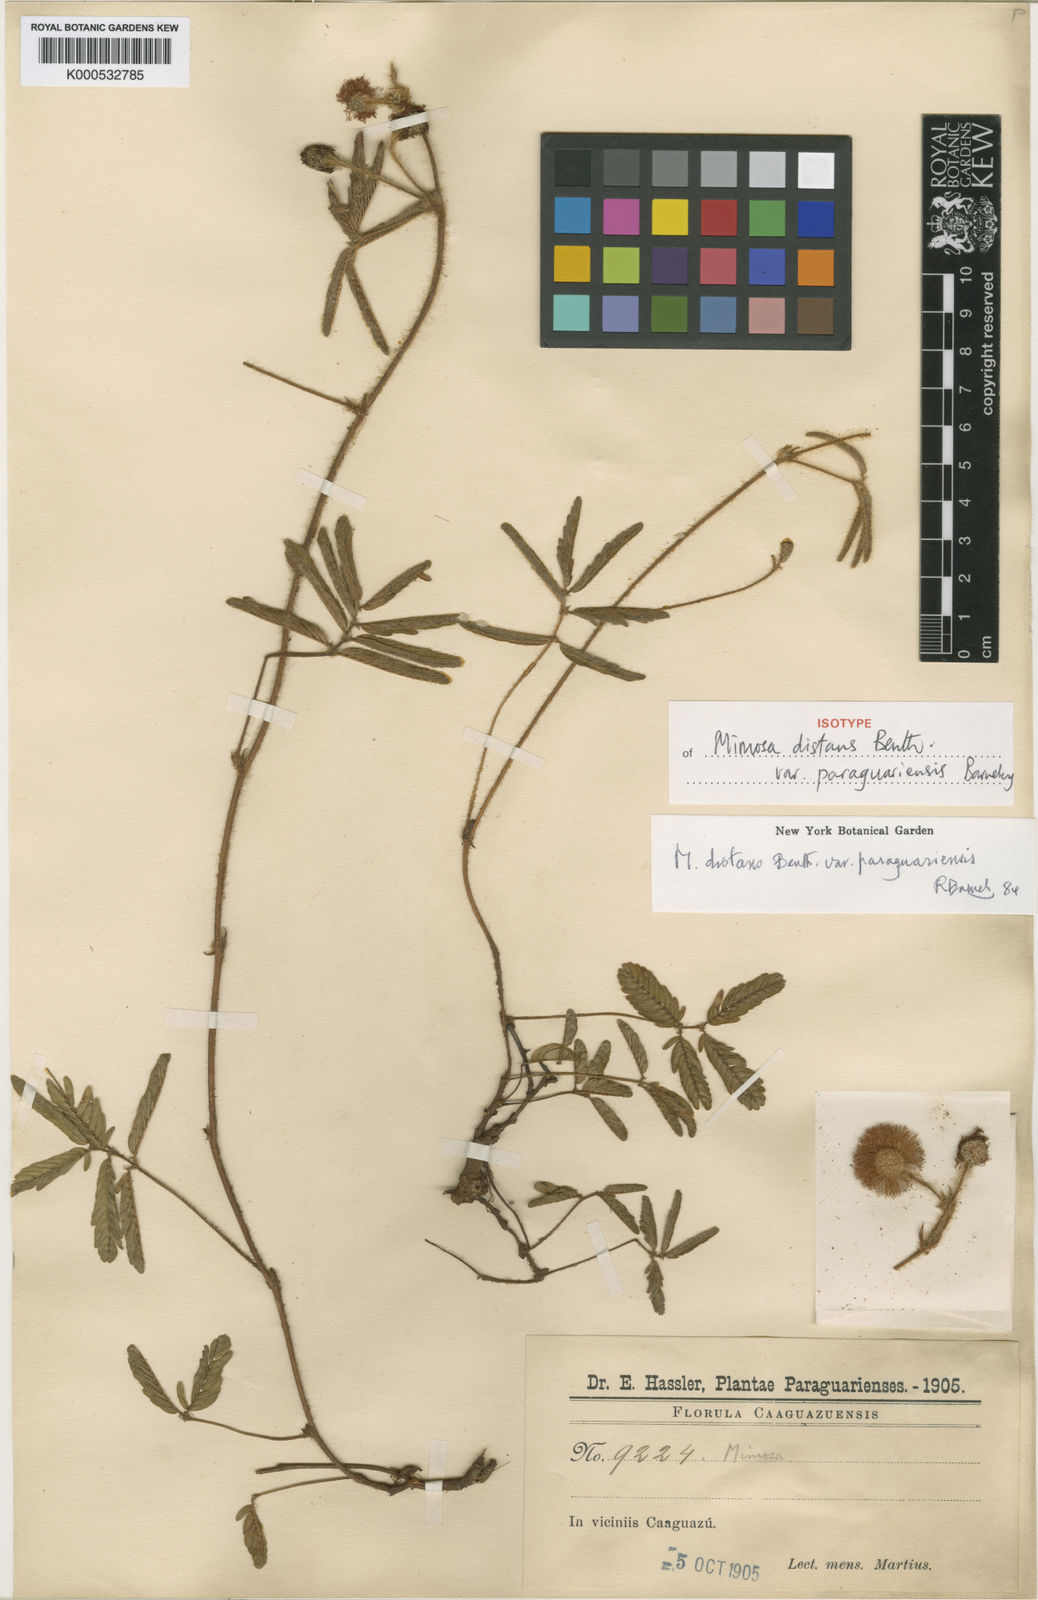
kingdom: Plantae
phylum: Tracheophyta
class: Magnoliopsida
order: Fabales
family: Fabaceae
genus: Mimosa
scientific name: Mimosa distans
